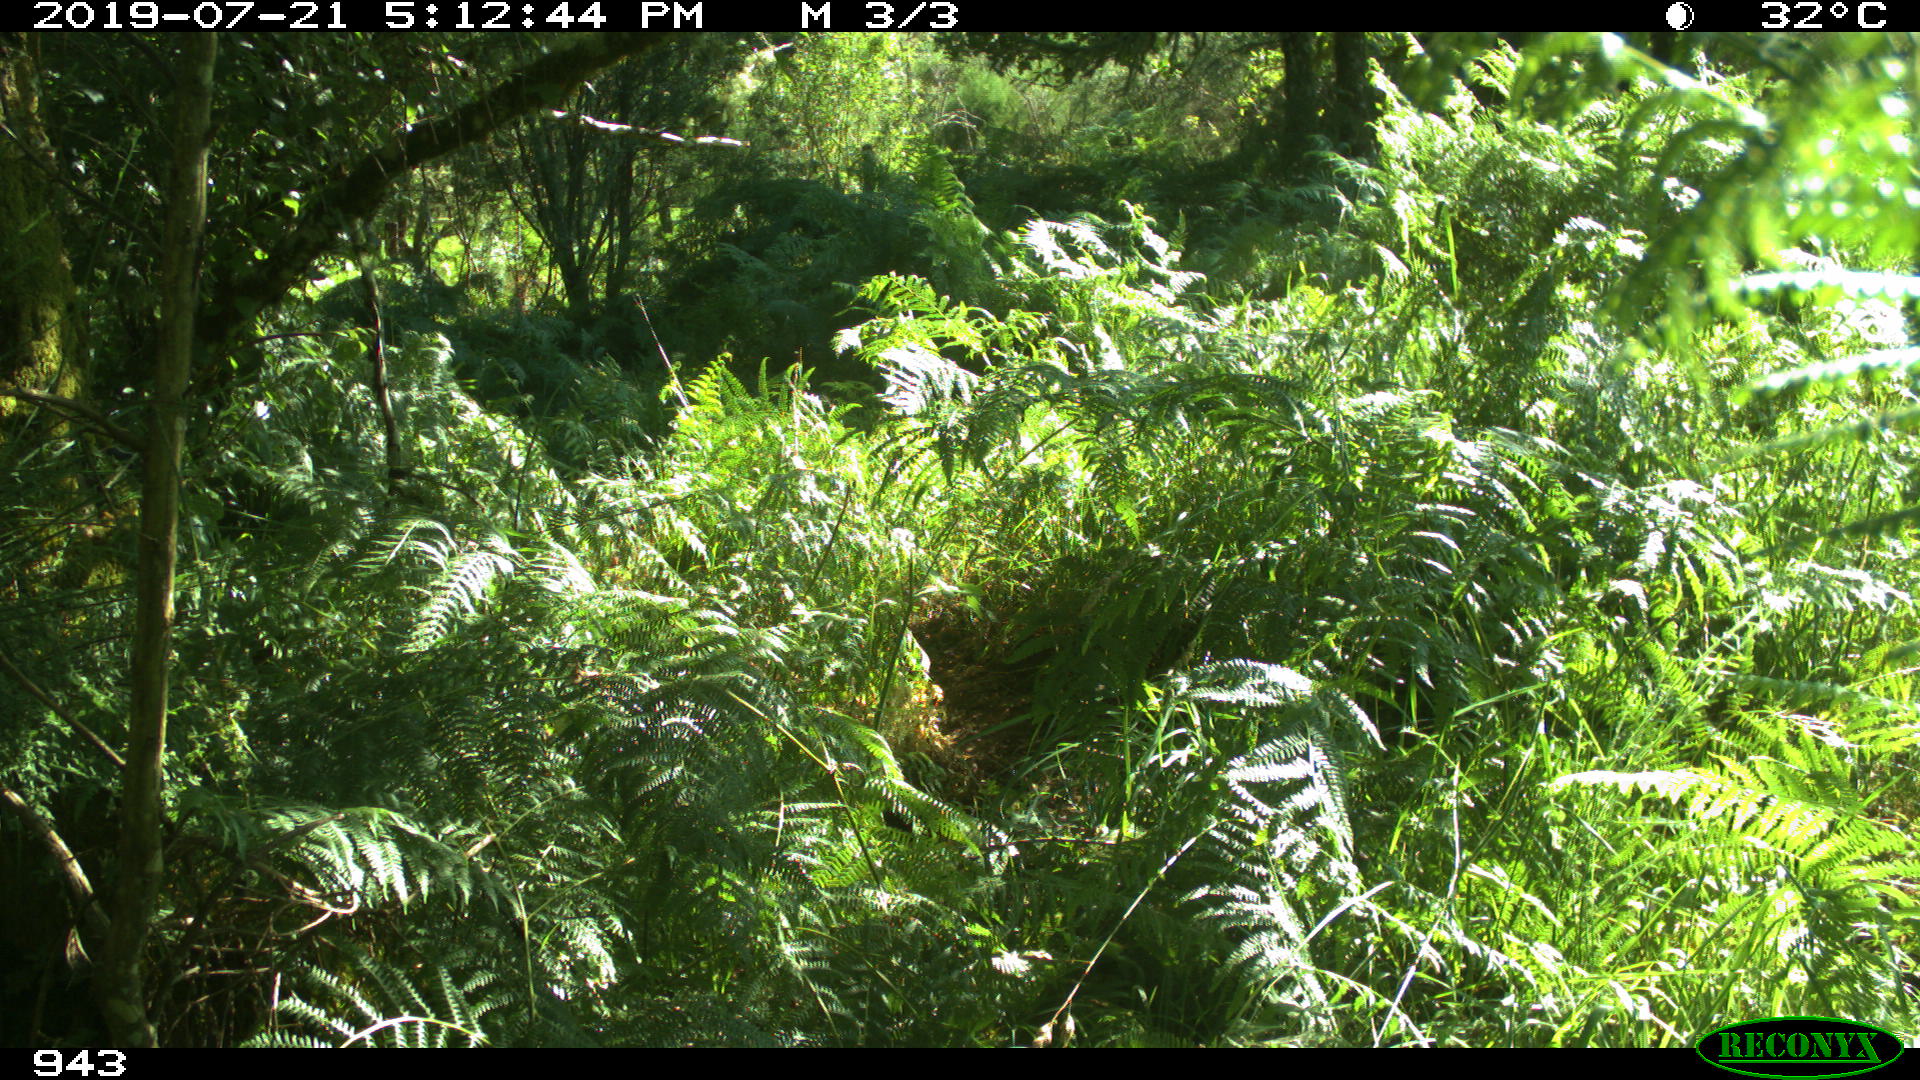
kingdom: Animalia
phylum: Chordata
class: Mammalia
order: Artiodactyla
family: Bovidae
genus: Bos
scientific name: Bos taurus
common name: Domesticated cattle
